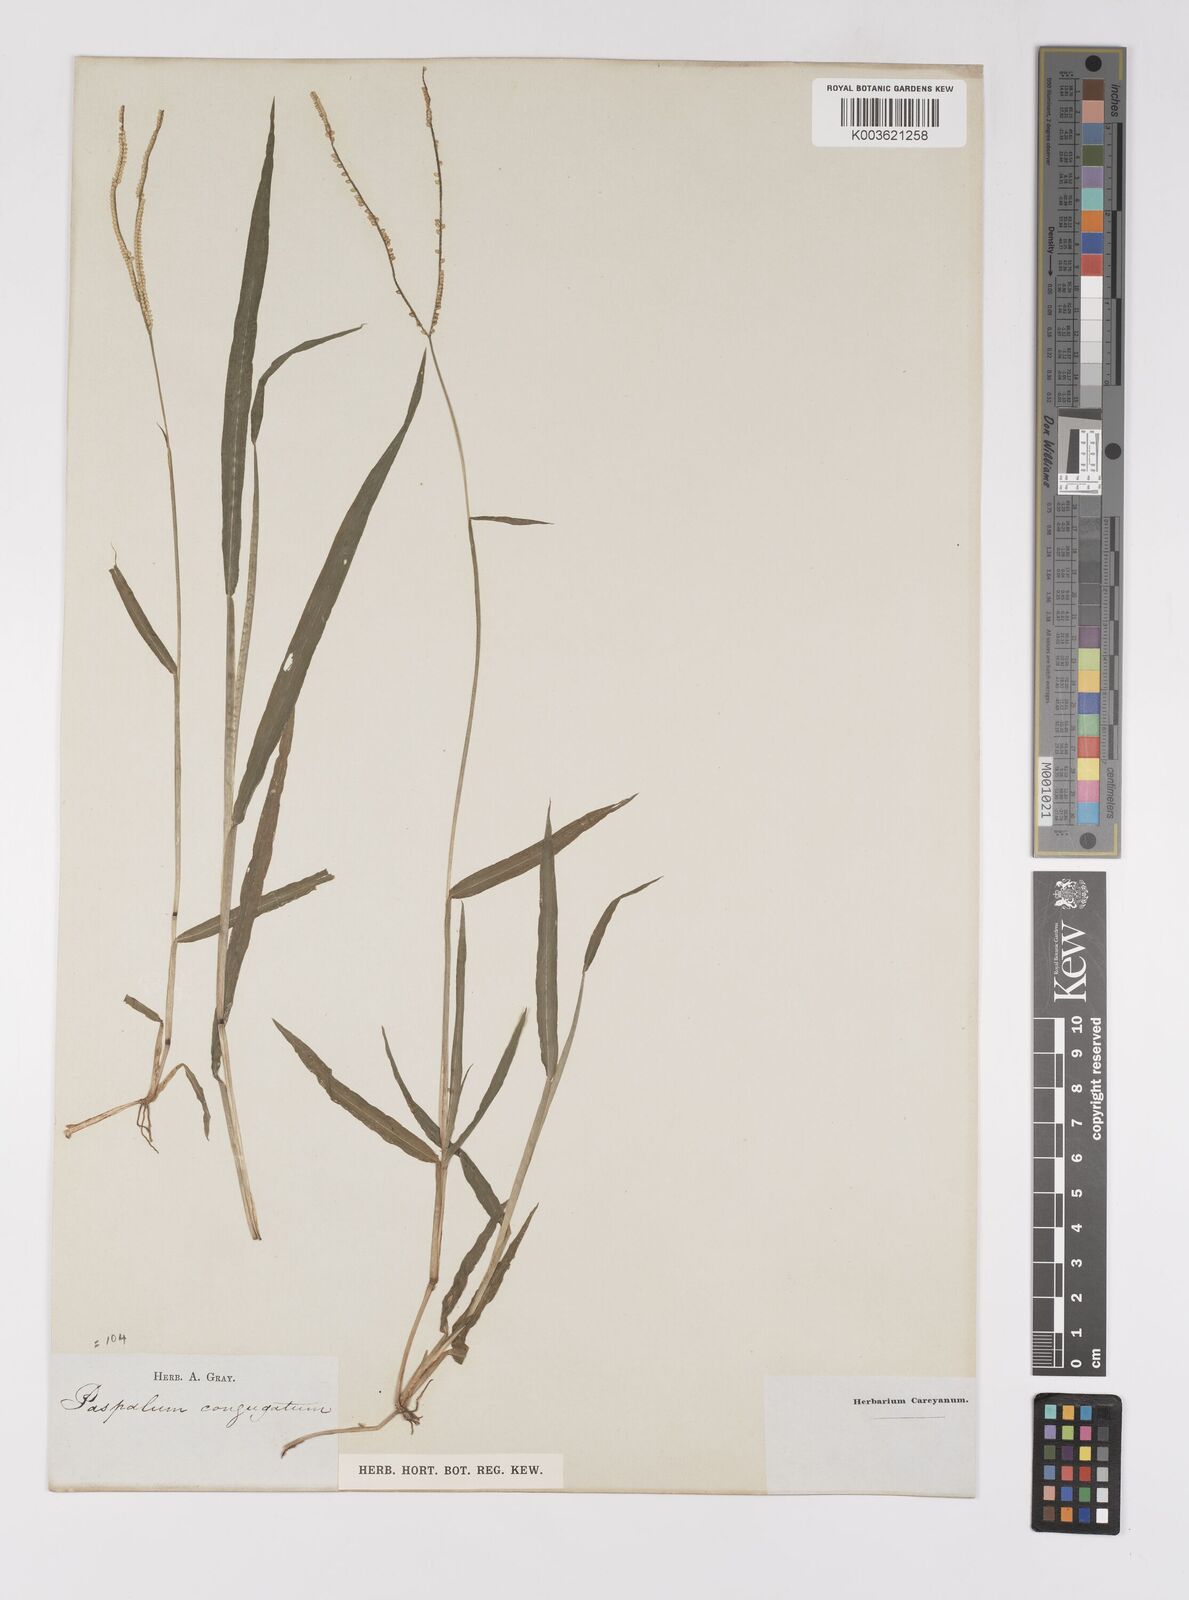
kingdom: Plantae
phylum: Tracheophyta
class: Liliopsida
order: Poales
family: Poaceae
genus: Paspalum
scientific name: Paspalum conjugatum
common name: Hilograss
